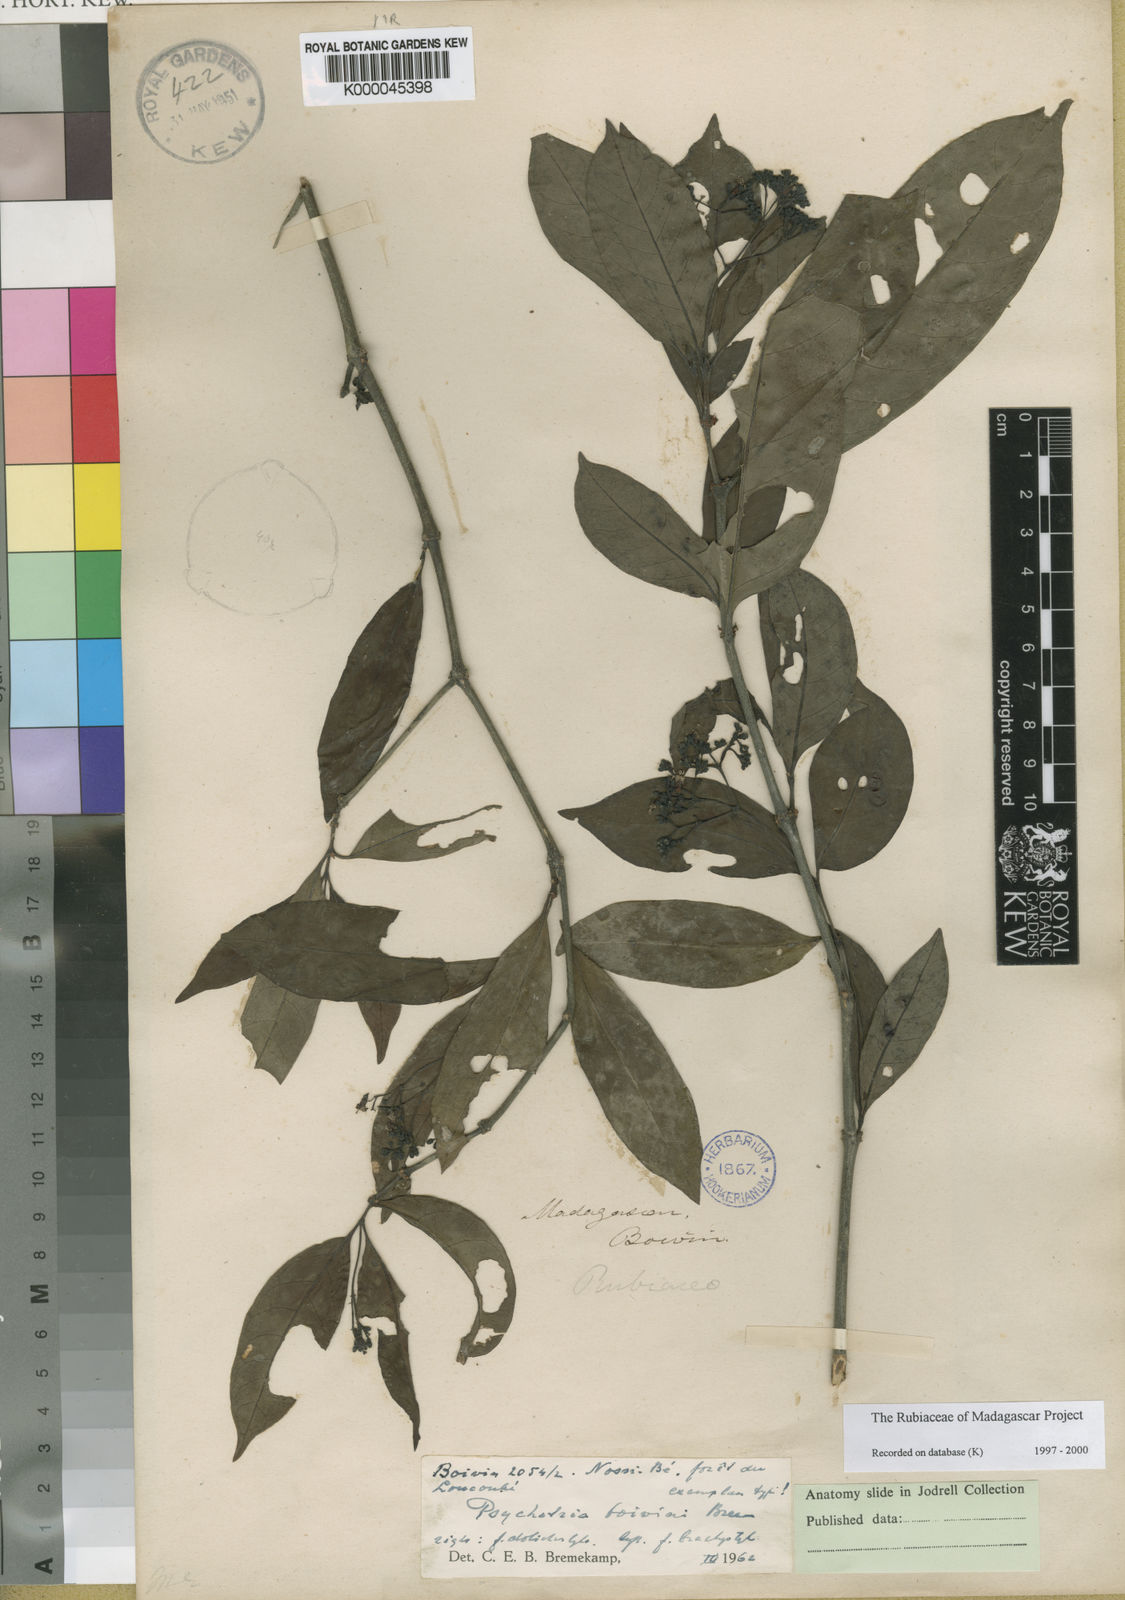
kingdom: Plantae
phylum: Tracheophyta
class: Magnoliopsida
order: Gentianales
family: Rubiaceae
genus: Psychotria
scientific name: Psychotria boivinii
